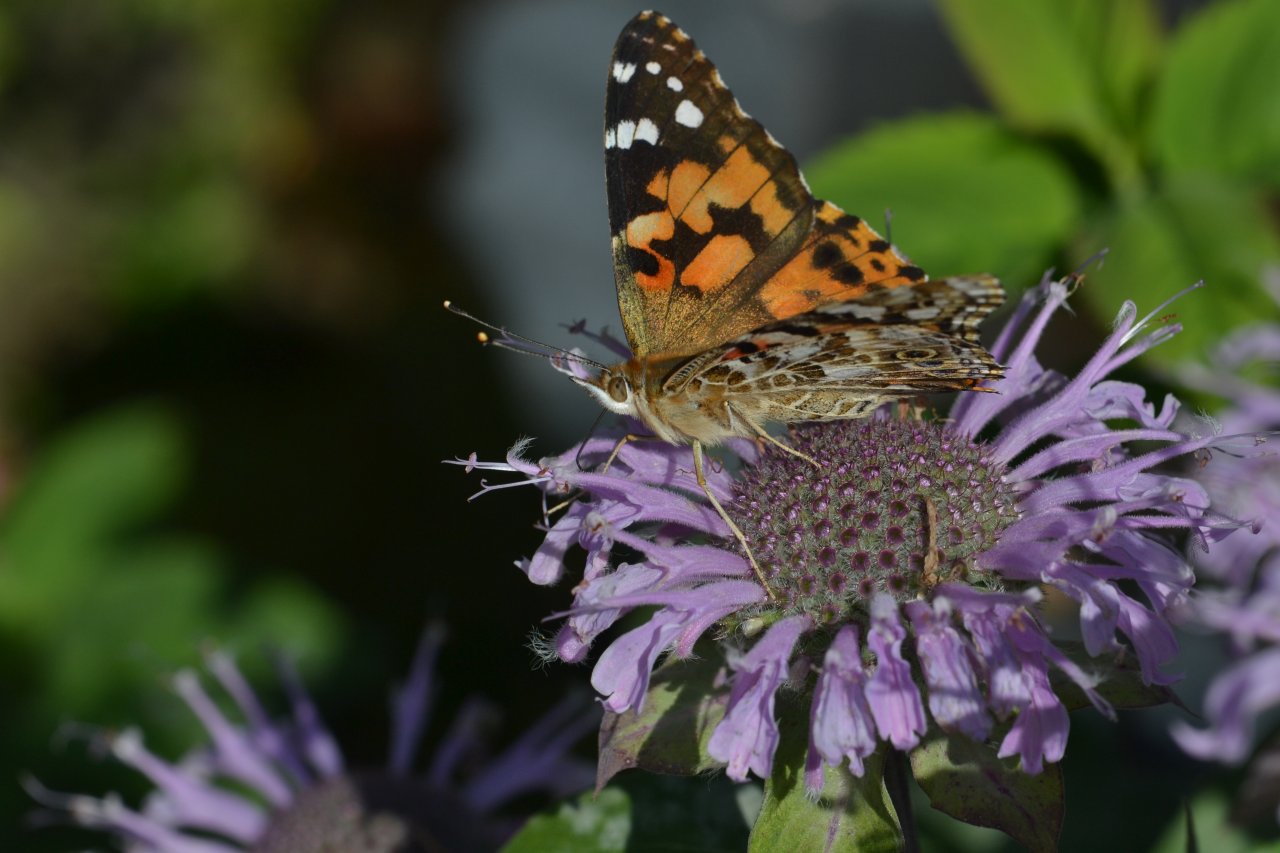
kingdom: Animalia
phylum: Arthropoda
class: Insecta
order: Lepidoptera
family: Nymphalidae
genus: Vanessa
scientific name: Vanessa cardui
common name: Painted Lady
